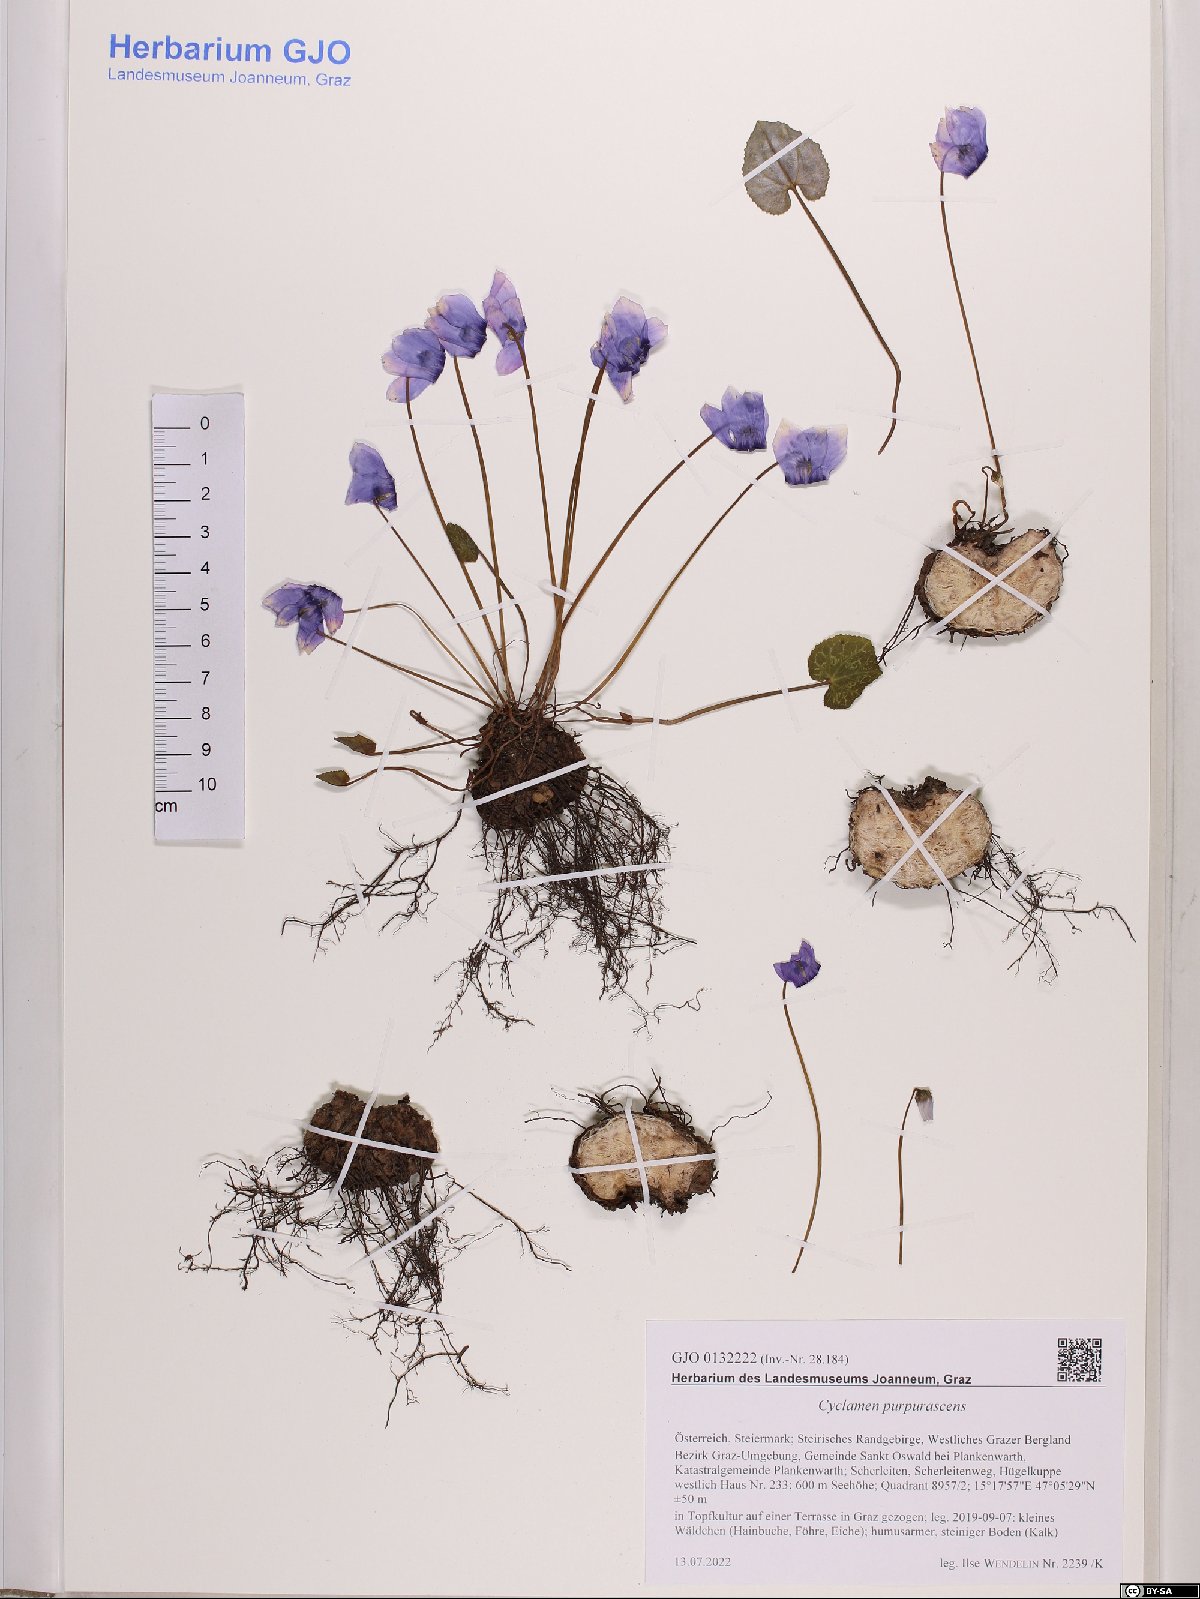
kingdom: Plantae
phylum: Tracheophyta
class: Magnoliopsida
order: Ericales
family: Primulaceae
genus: Cyclamen
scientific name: Cyclamen purpurascens
